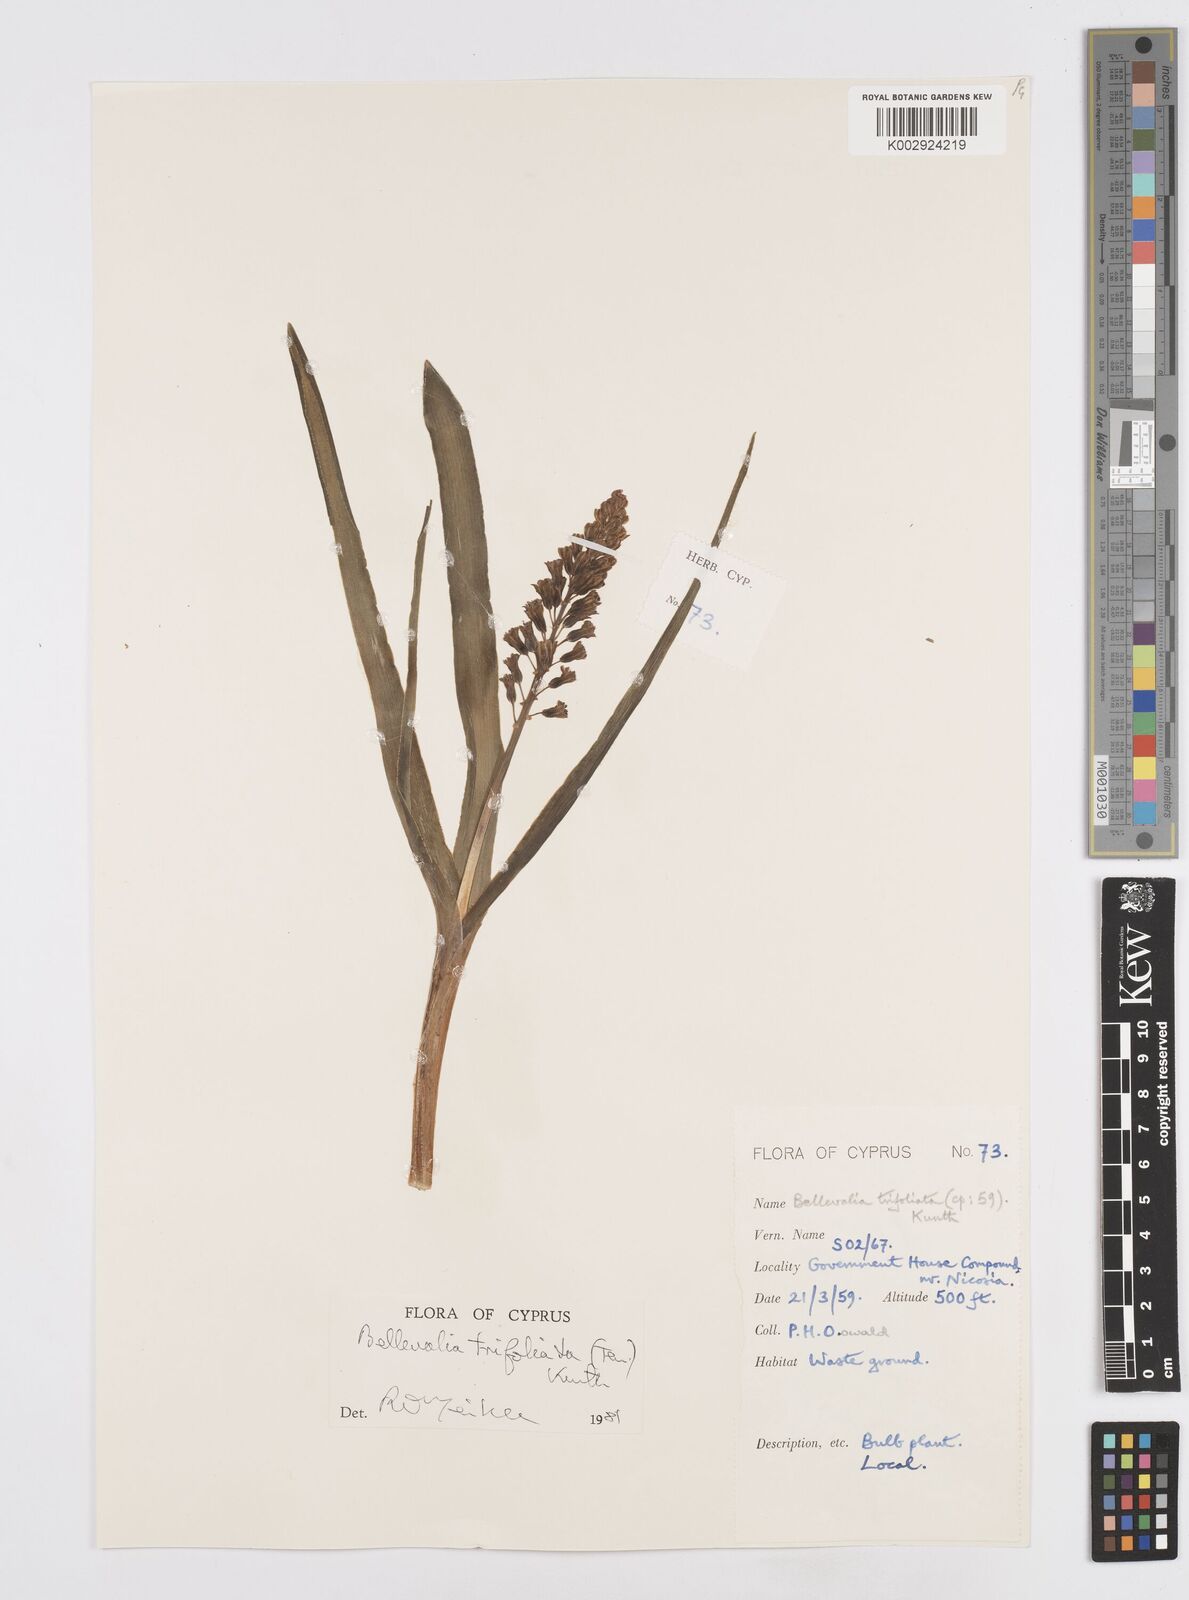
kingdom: Plantae
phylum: Tracheophyta
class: Liliopsida
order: Asparagales
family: Asparagaceae
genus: Bellevalia
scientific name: Bellevalia trifoliata
